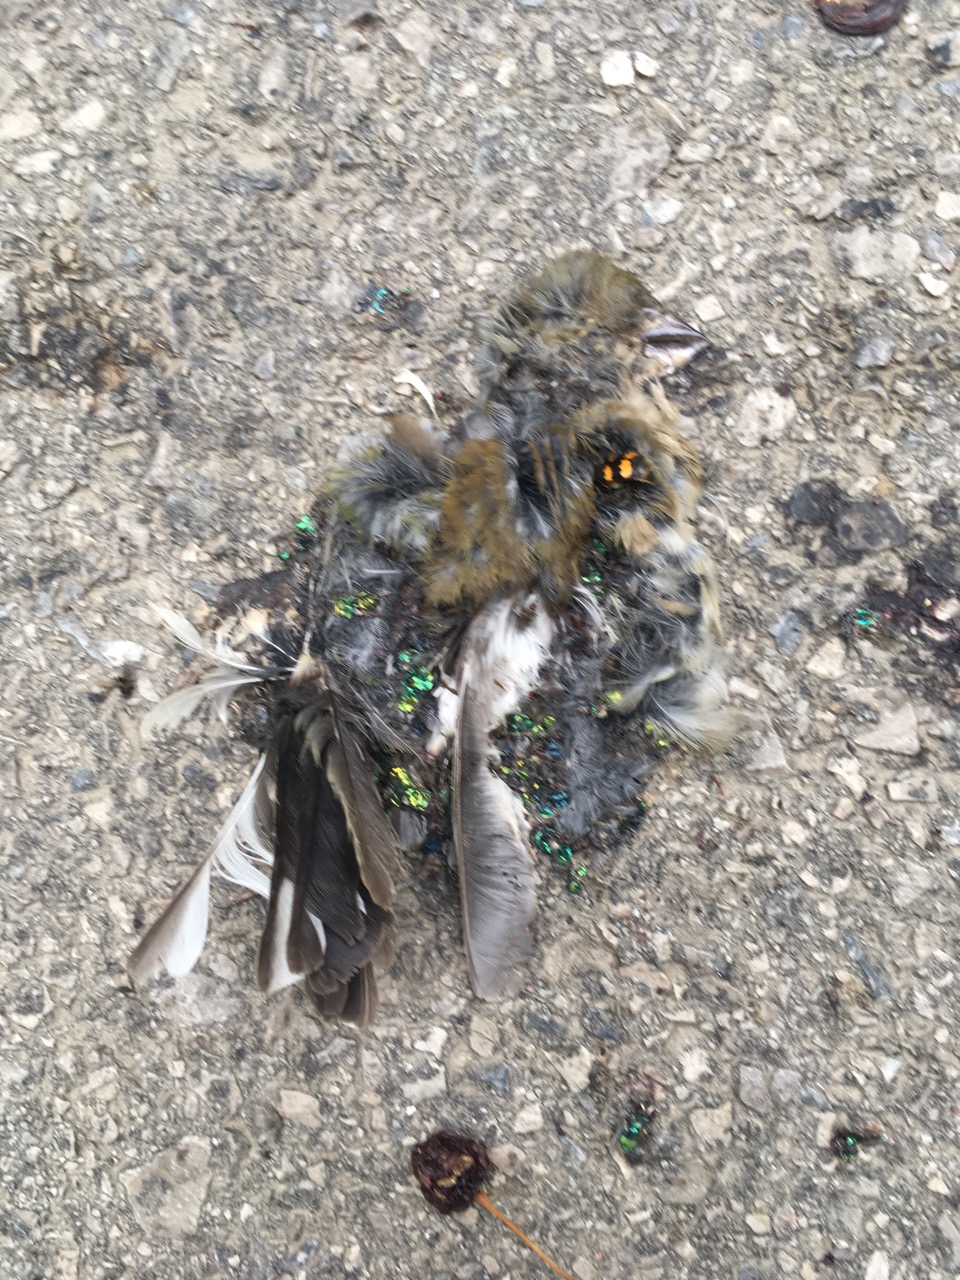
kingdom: Animalia
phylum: Chordata
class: Aves
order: Passeriformes
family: Fringillidae
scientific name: Fringillidae
